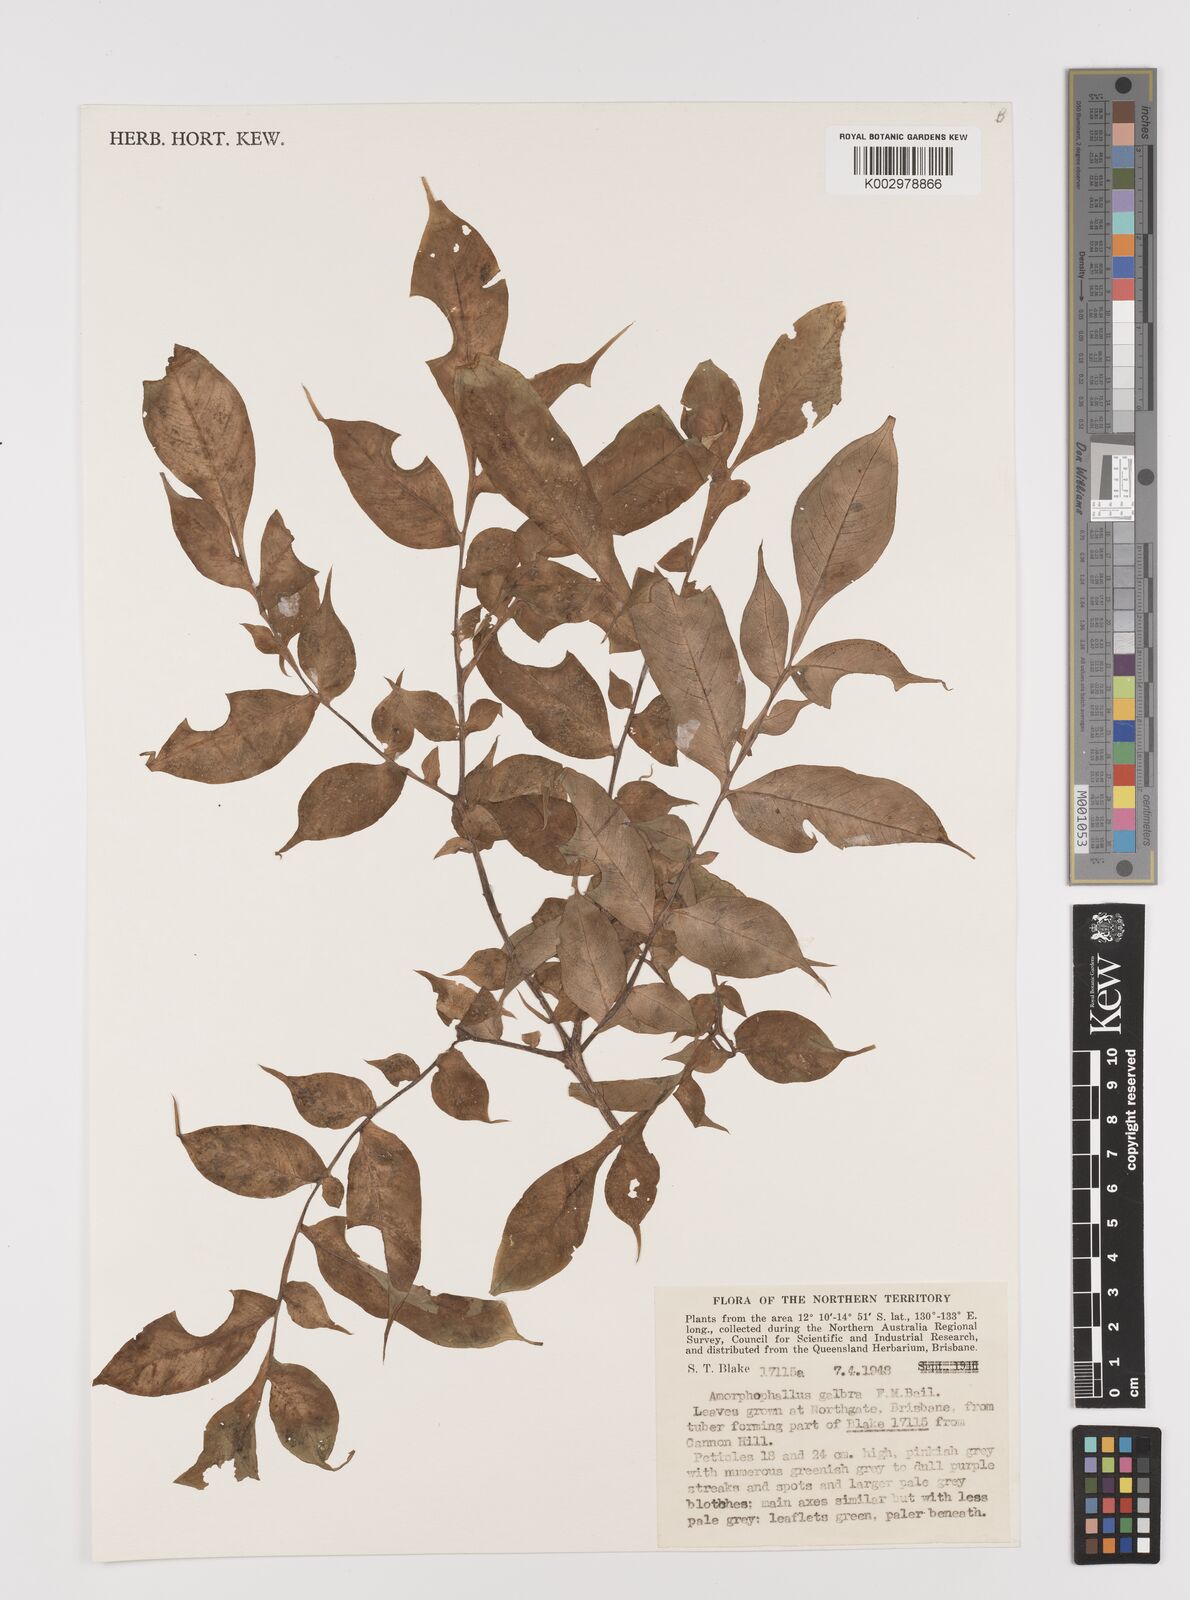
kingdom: Plantae
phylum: Tracheophyta
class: Liliopsida
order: Alismatales
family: Araceae
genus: Amorphophallus
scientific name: Amorphophallus galbra
